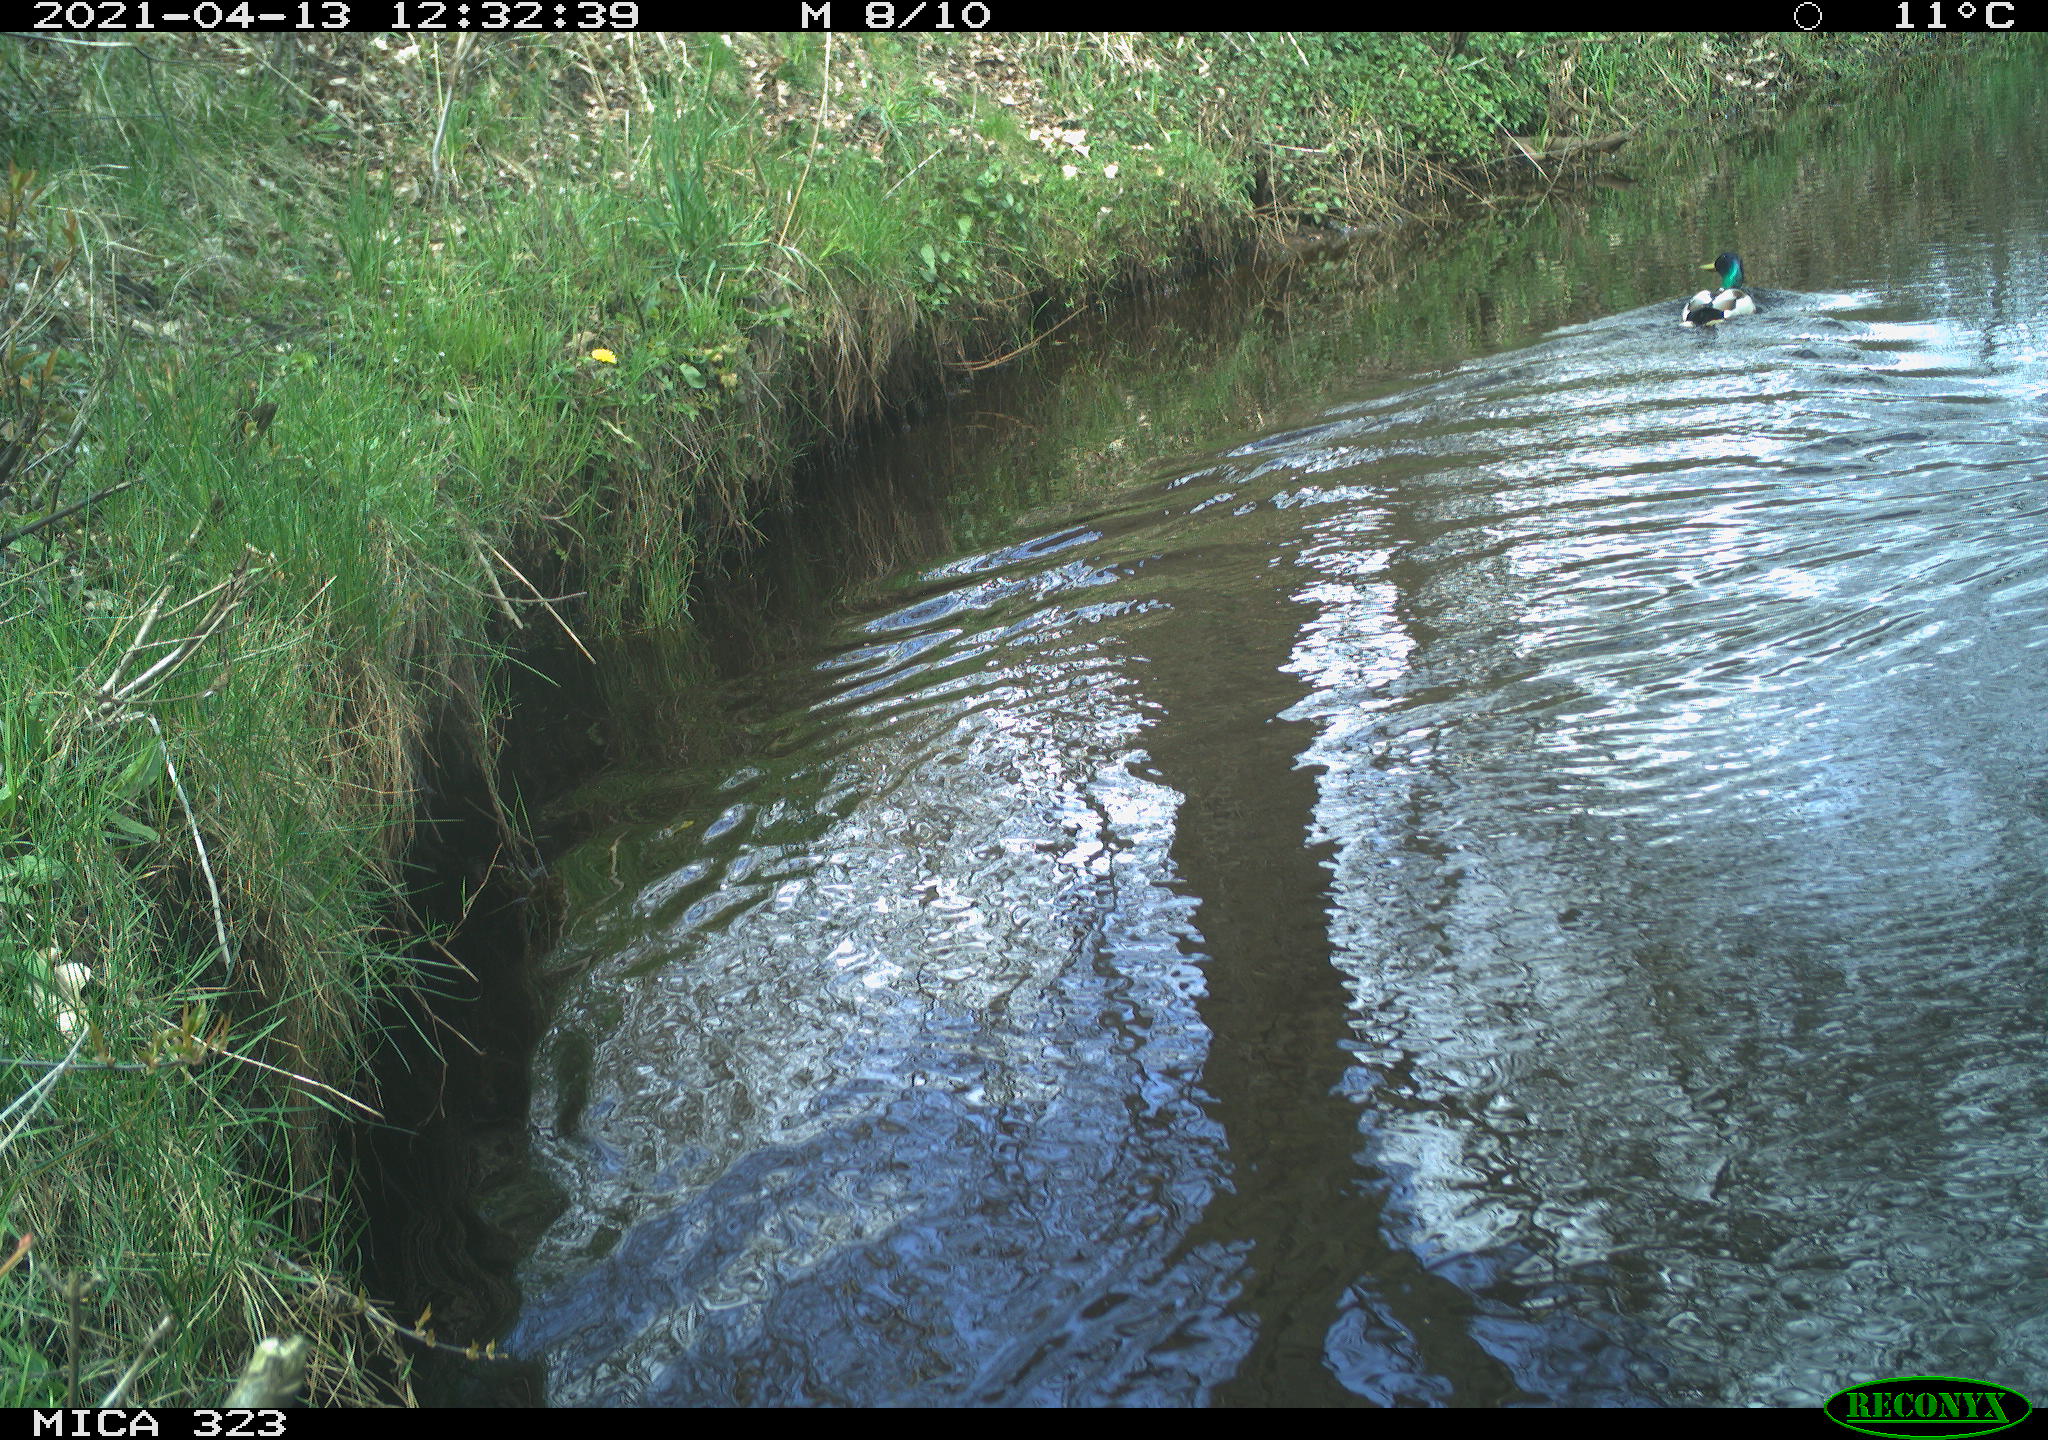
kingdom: Animalia
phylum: Chordata
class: Aves
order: Anseriformes
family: Anatidae
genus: Anas
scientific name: Anas platyrhynchos
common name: Mallard
